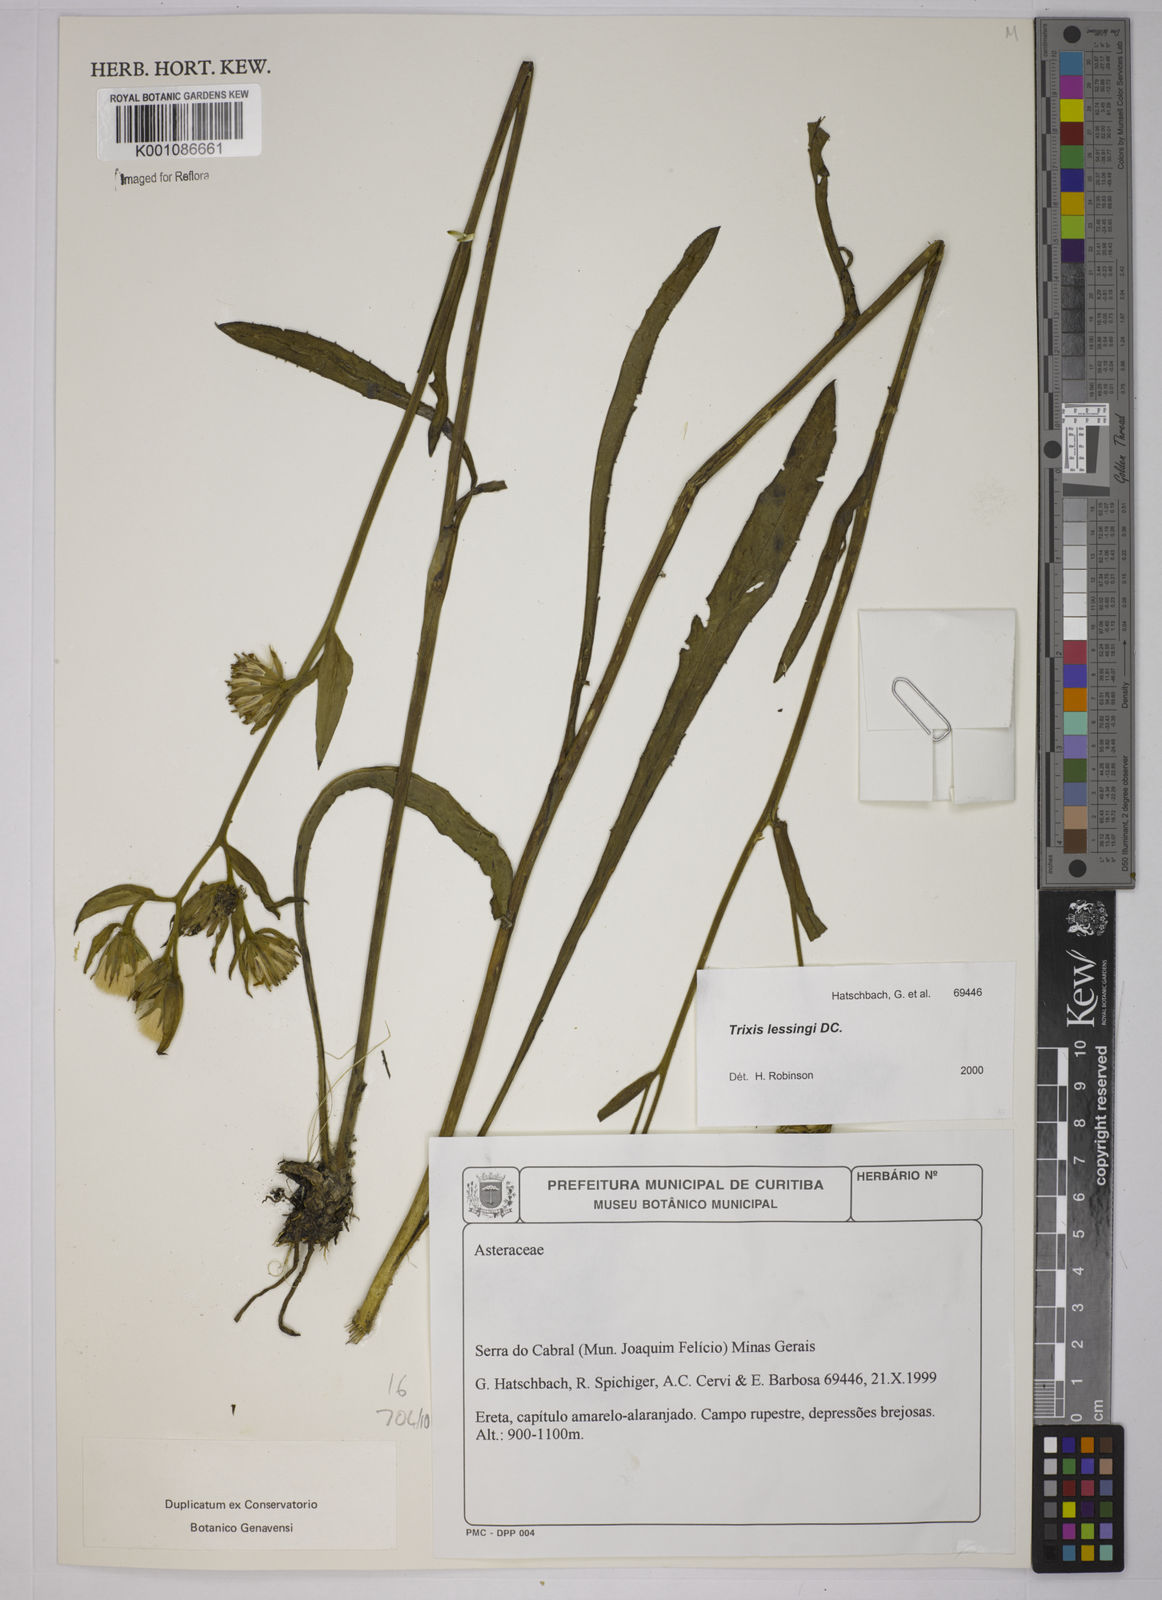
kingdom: Plantae
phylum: Tracheophyta
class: Magnoliopsida
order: Asterales
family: Asteraceae
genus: Trixis
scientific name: Trixis lessingii
